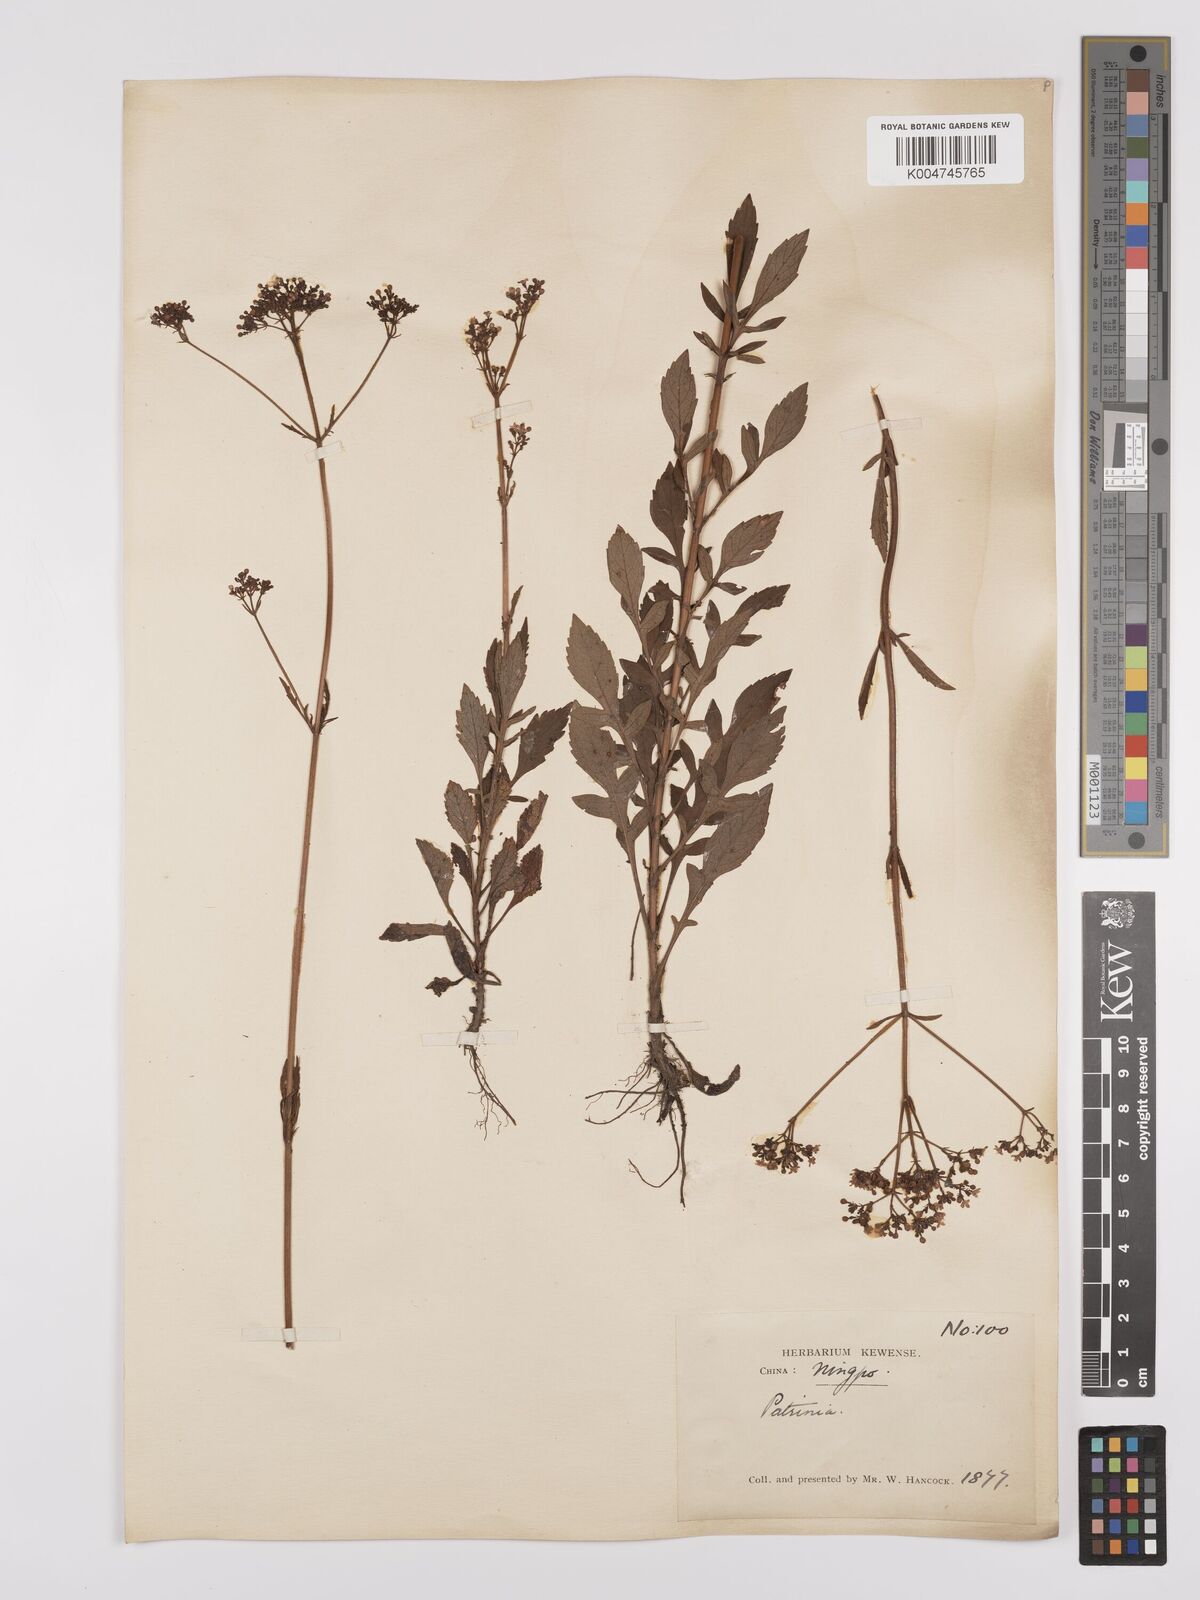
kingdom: Plantae
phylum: Tracheophyta
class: Magnoliopsida
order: Dipsacales
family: Caprifoliaceae
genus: Patrinia
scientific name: Patrinia
